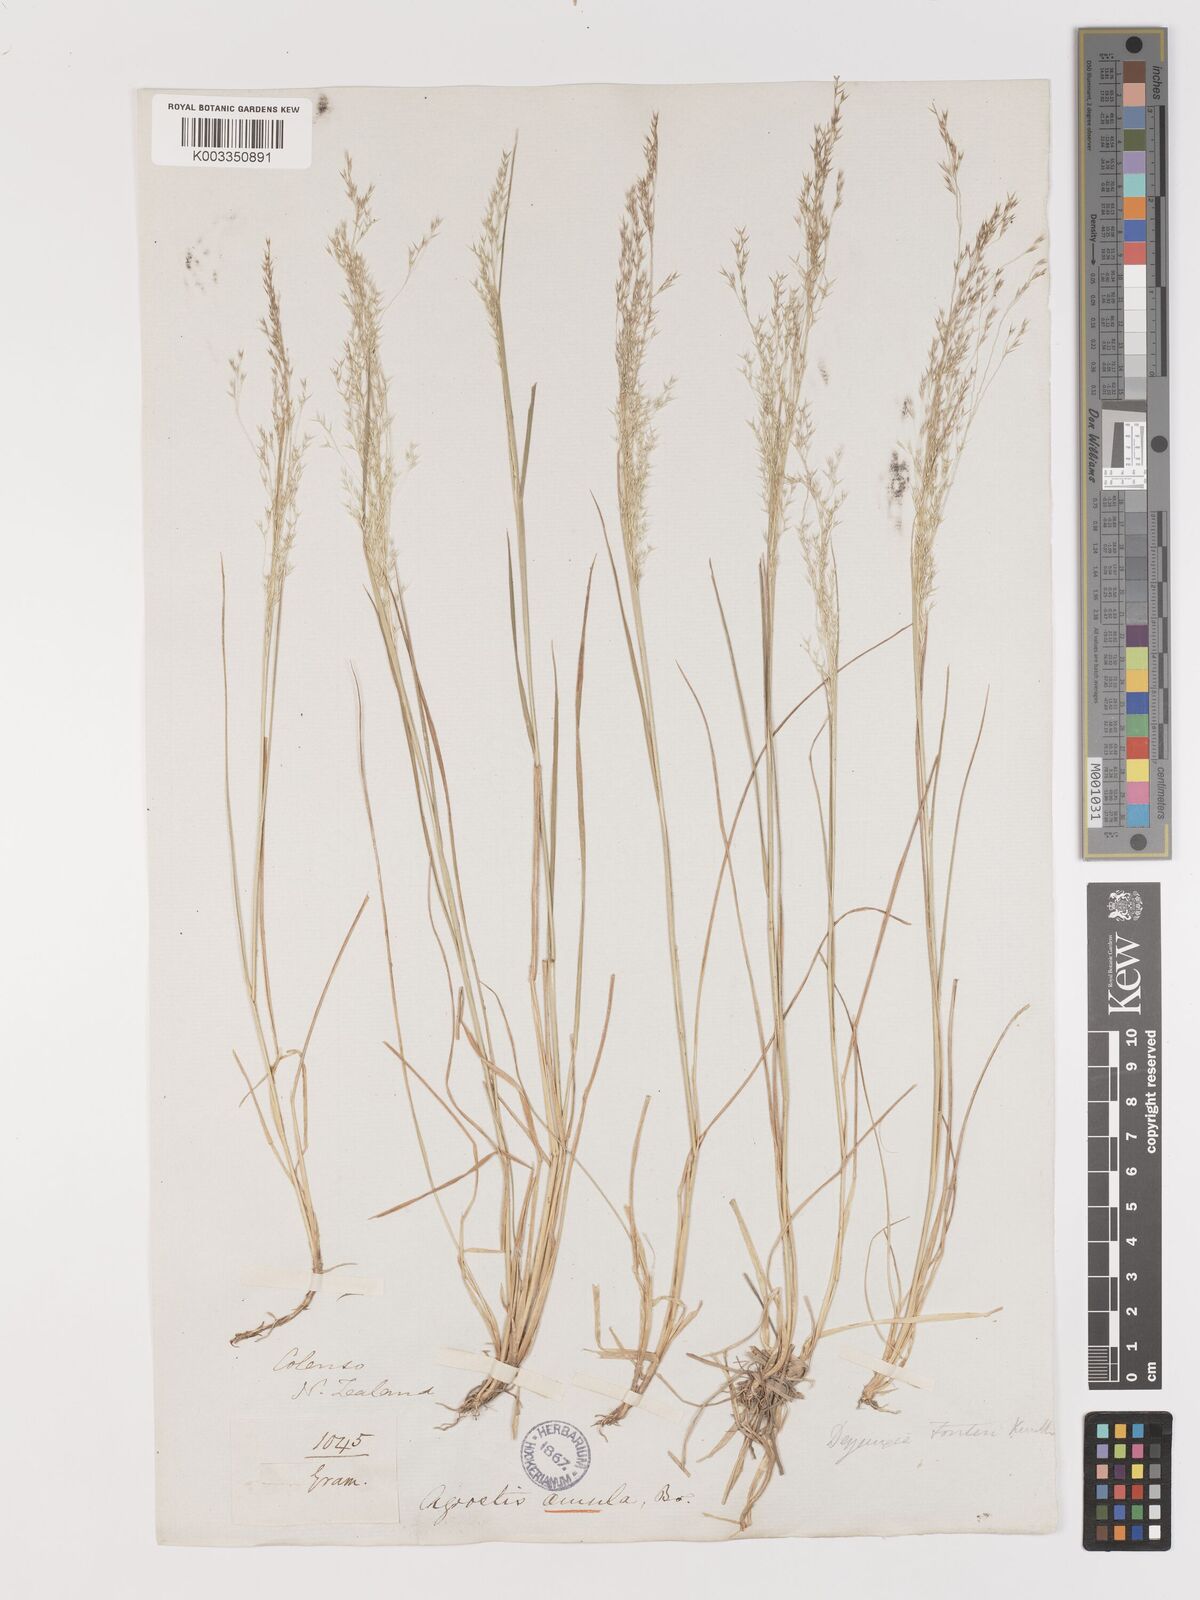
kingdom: Plantae
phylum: Tracheophyta
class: Liliopsida
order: Poales
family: Poaceae
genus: Lachnagrostis
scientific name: Lachnagrostis filiformis
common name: Bentgrass
